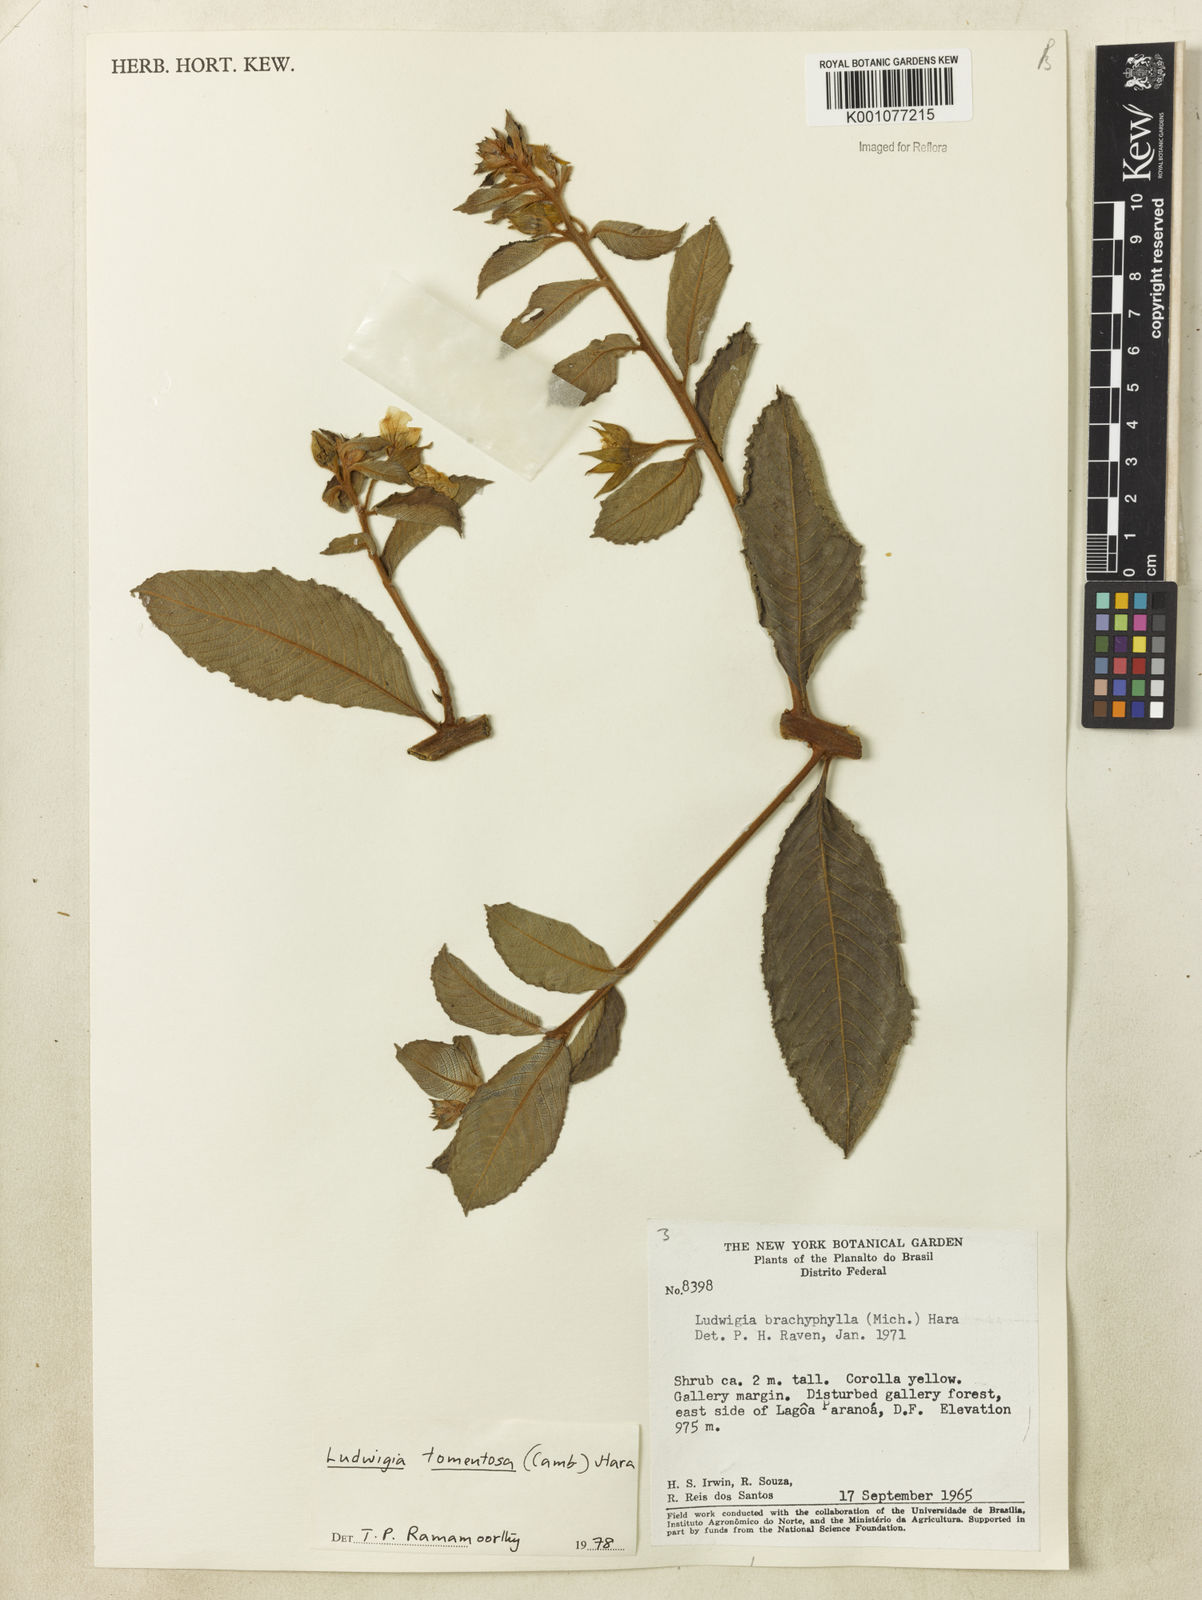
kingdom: Plantae
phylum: Tracheophyta
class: Magnoliopsida
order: Myrtales
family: Onagraceae
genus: Ludwigia
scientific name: Ludwigia tomentosa
